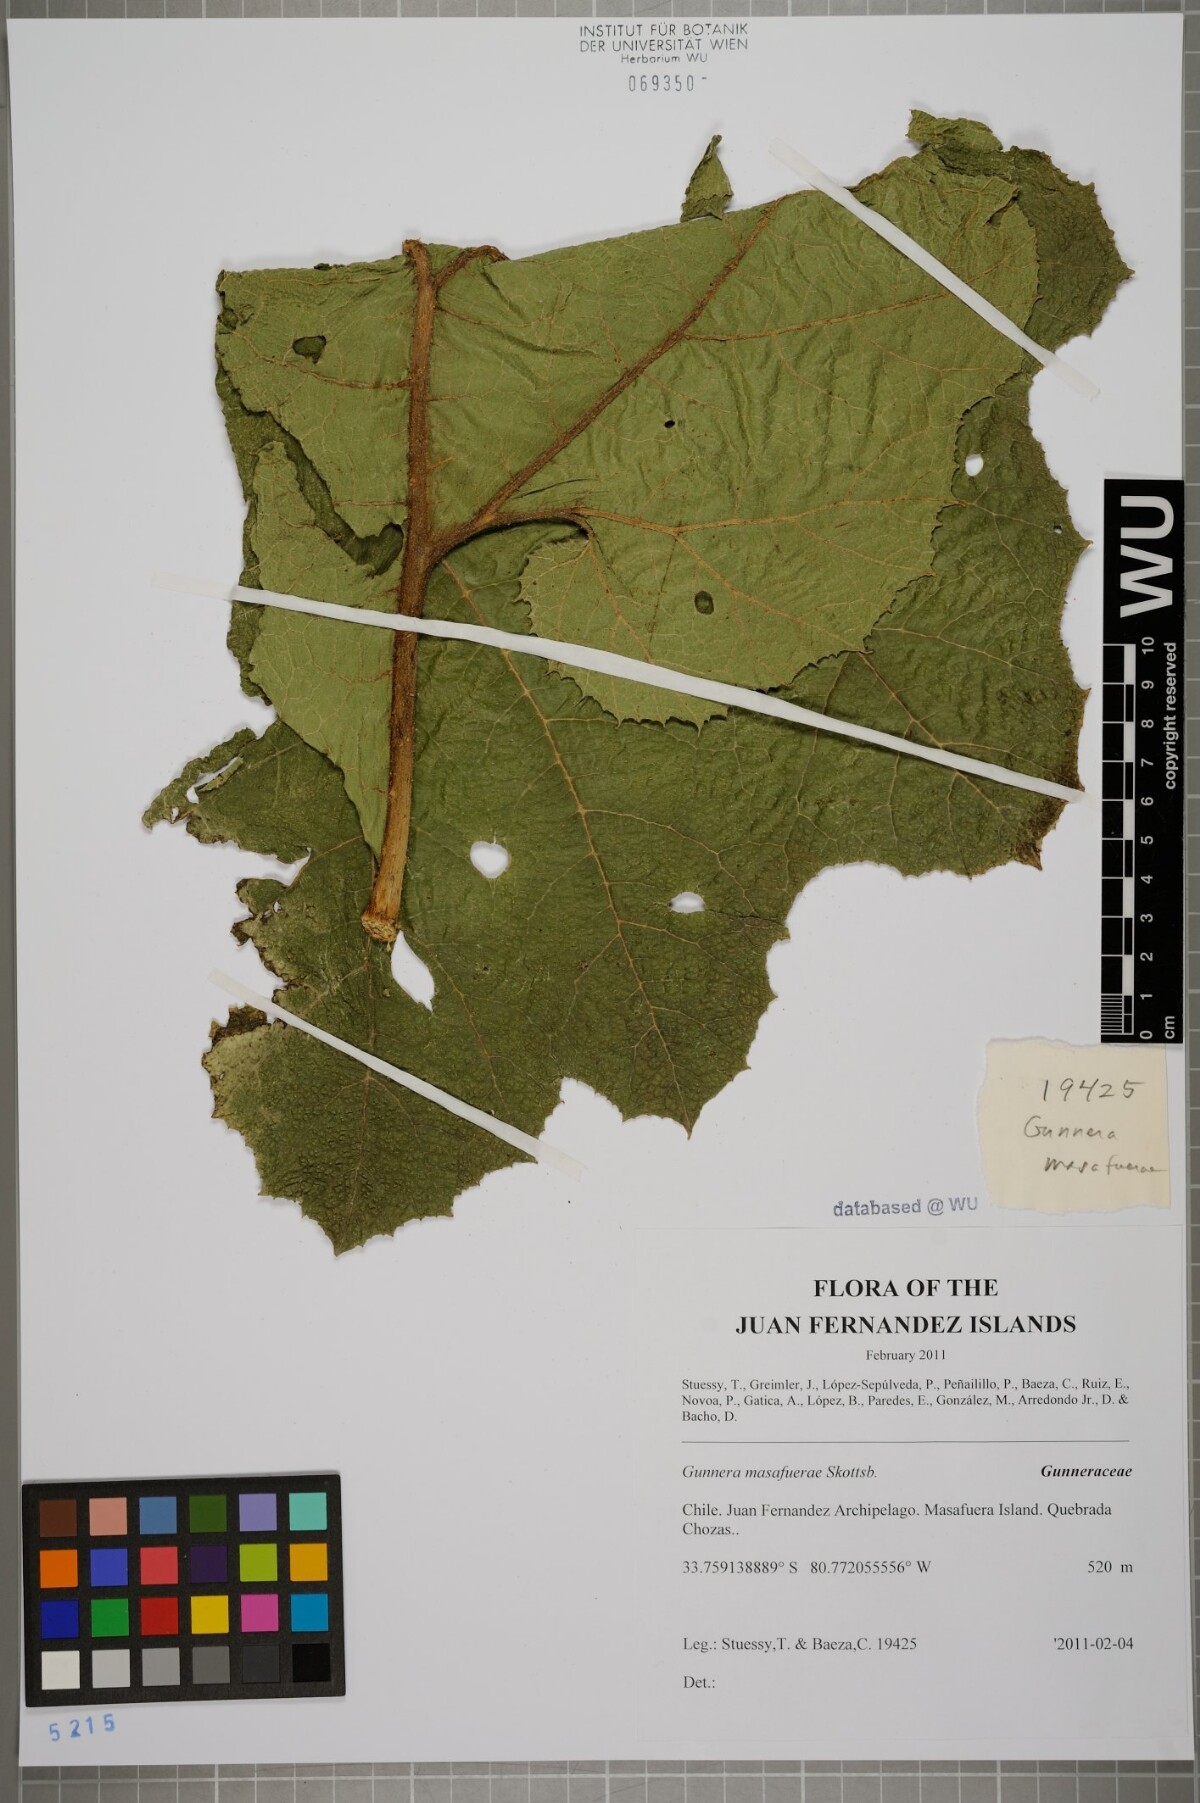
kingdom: Plantae
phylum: Tracheophyta
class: Magnoliopsida
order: Gunnerales
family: Gunneraceae
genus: Gunnera
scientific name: Gunnera masafuerae
